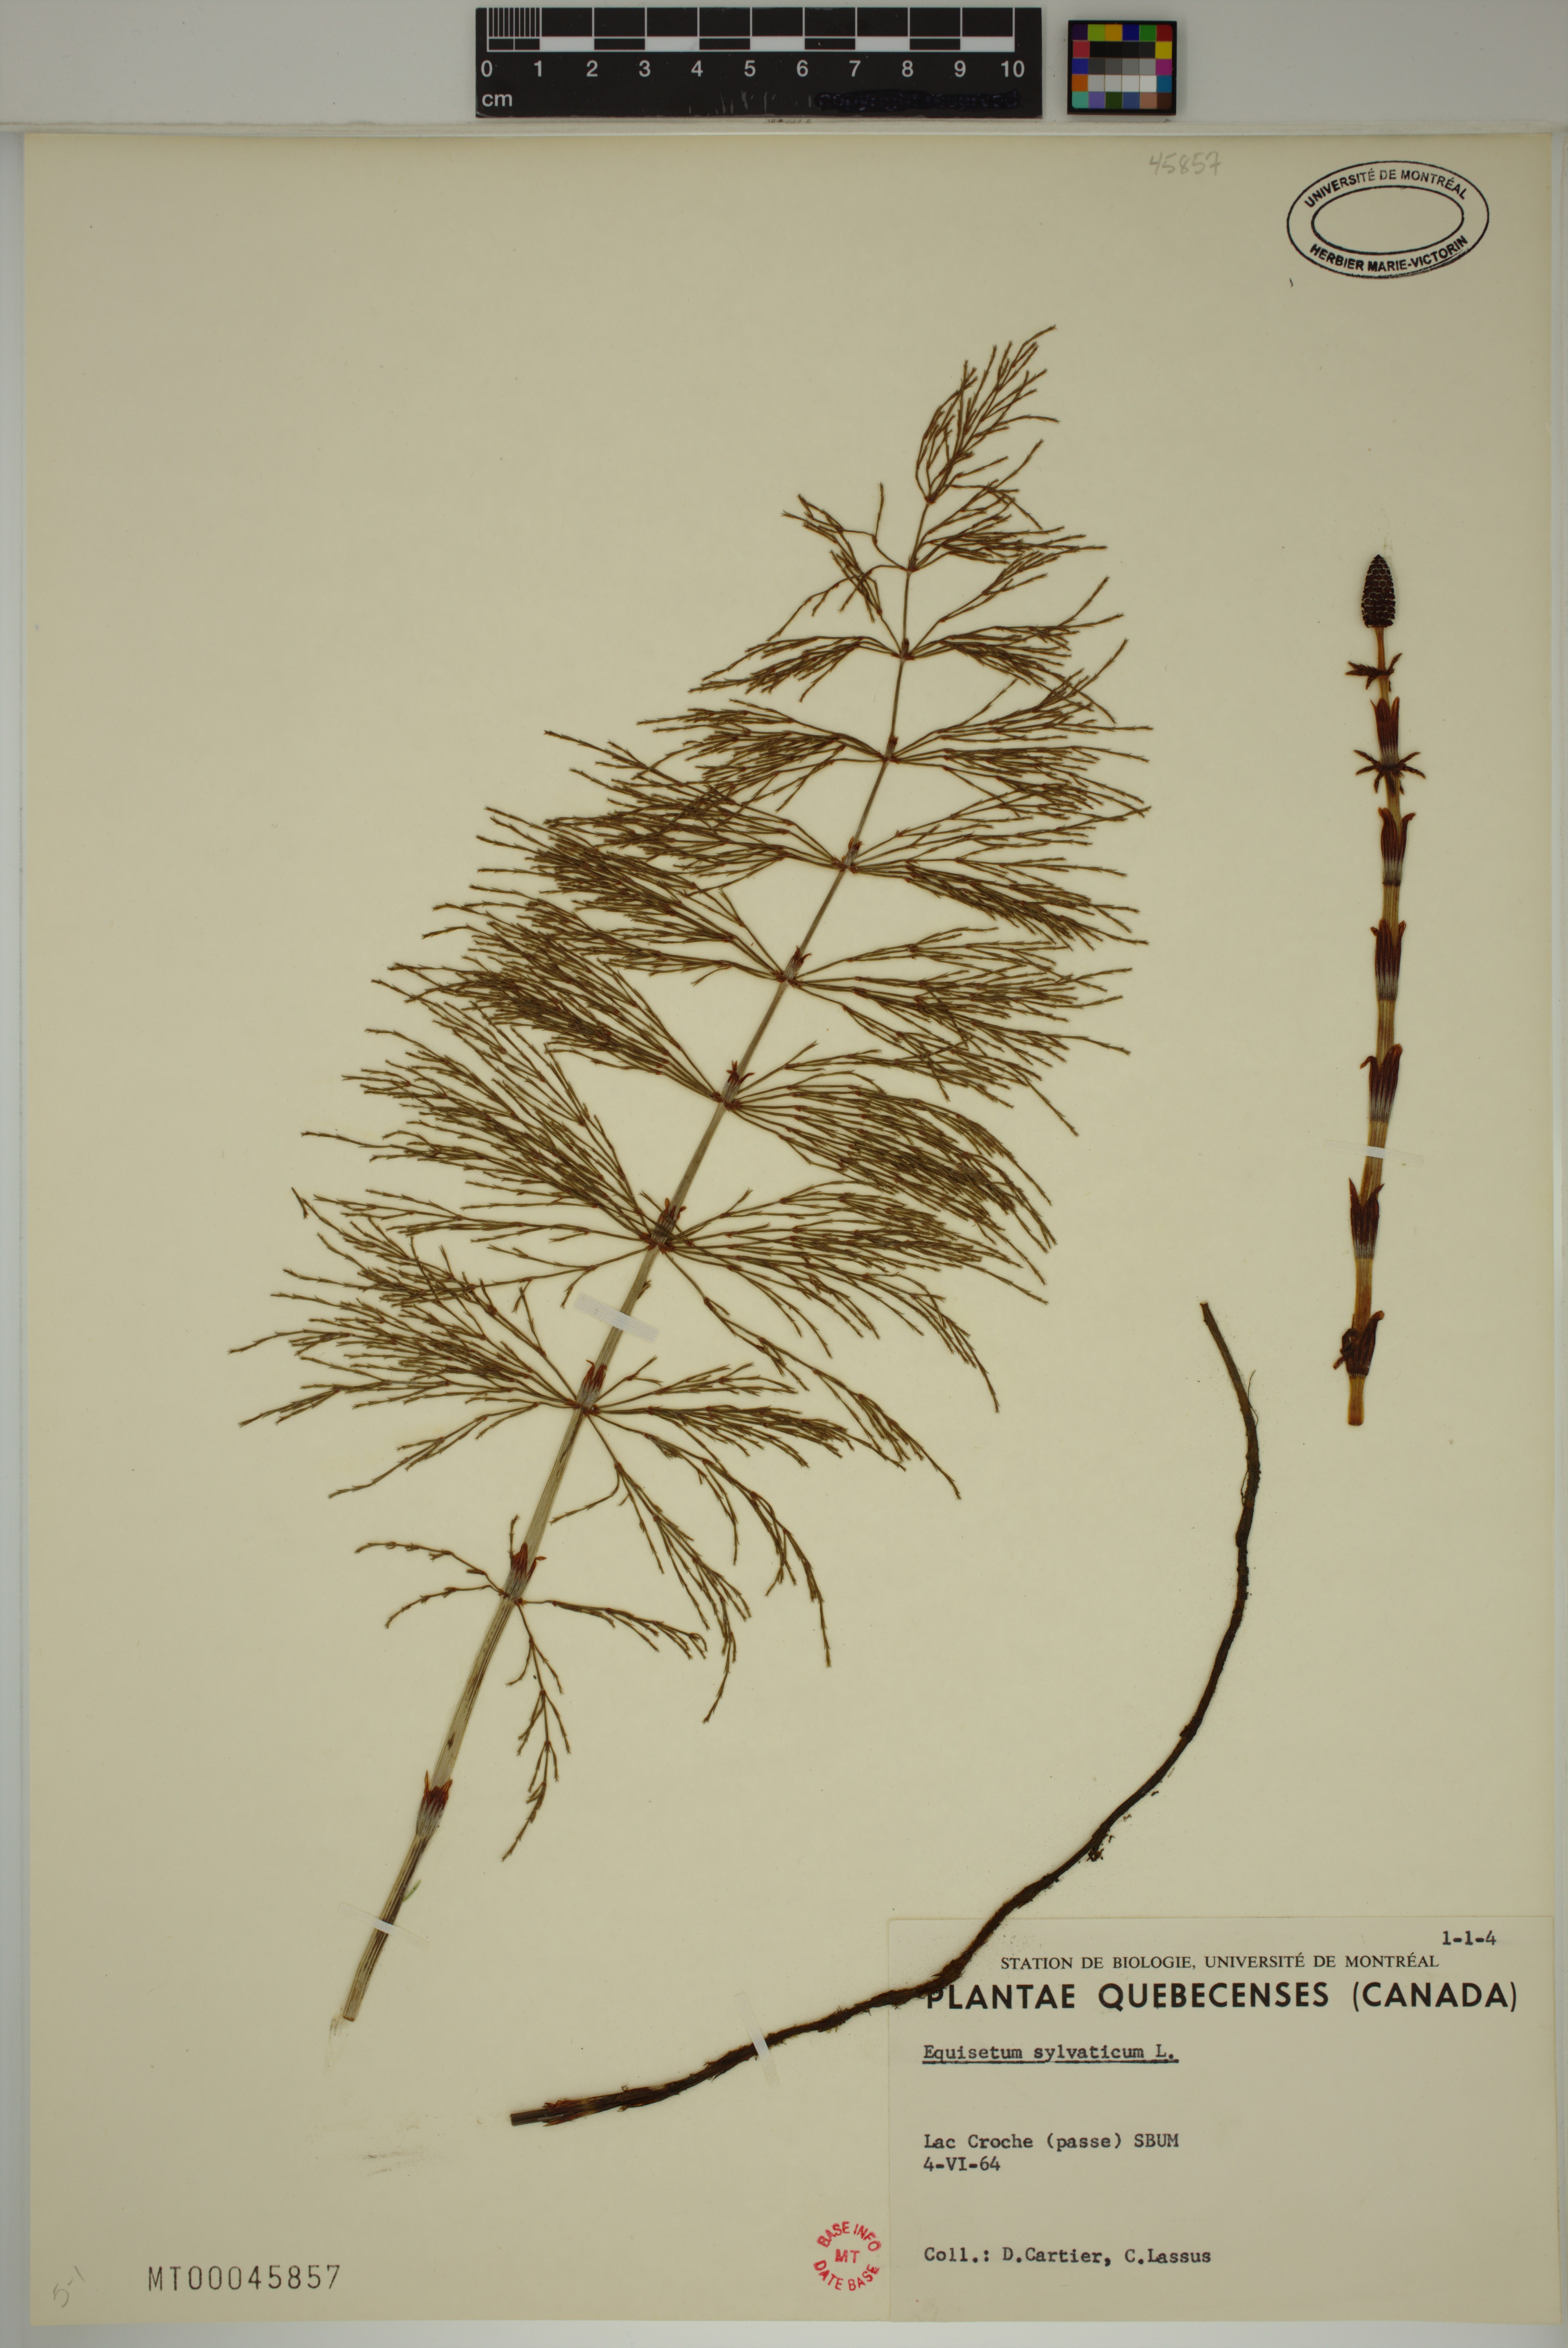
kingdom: Plantae
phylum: Tracheophyta
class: Polypodiopsida
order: Equisetales
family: Equisetaceae
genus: Equisetum
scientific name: Equisetum sylvaticum
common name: Wood horsetail
